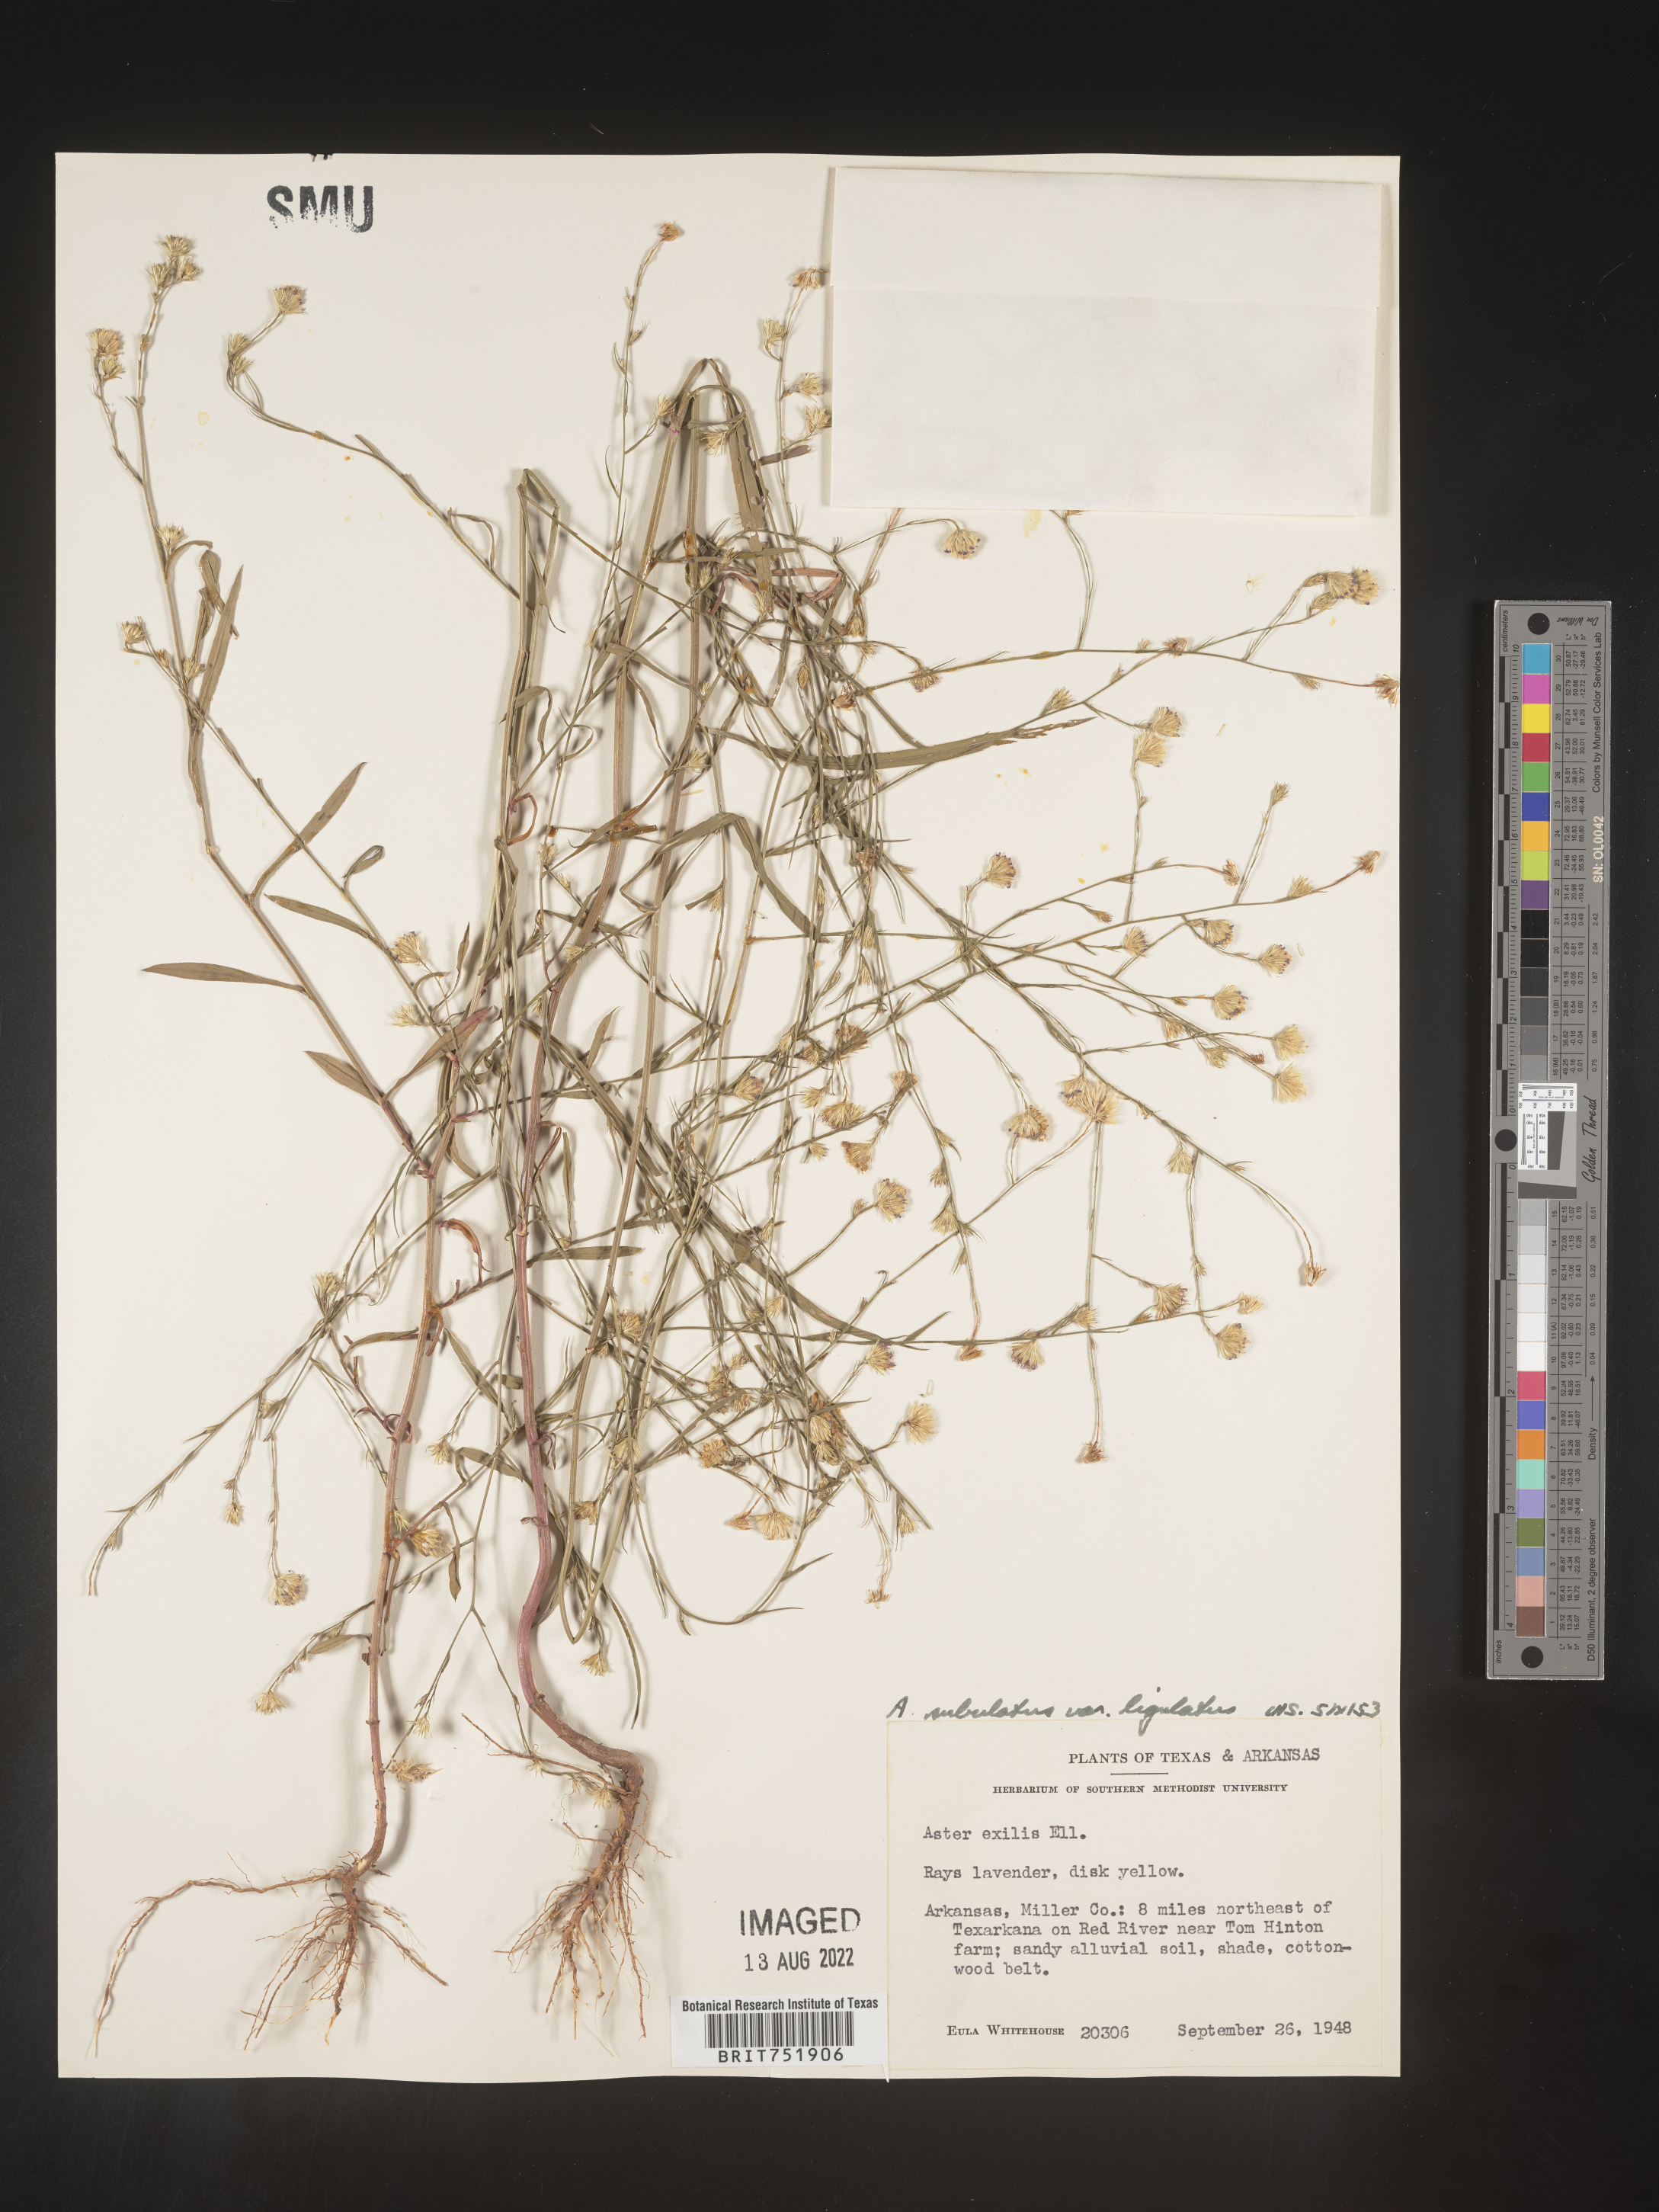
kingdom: Plantae
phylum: Tracheophyta
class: Magnoliopsida
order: Asterales
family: Asteraceae
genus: Symphyotrichum
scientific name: Symphyotrichum divaricatum
